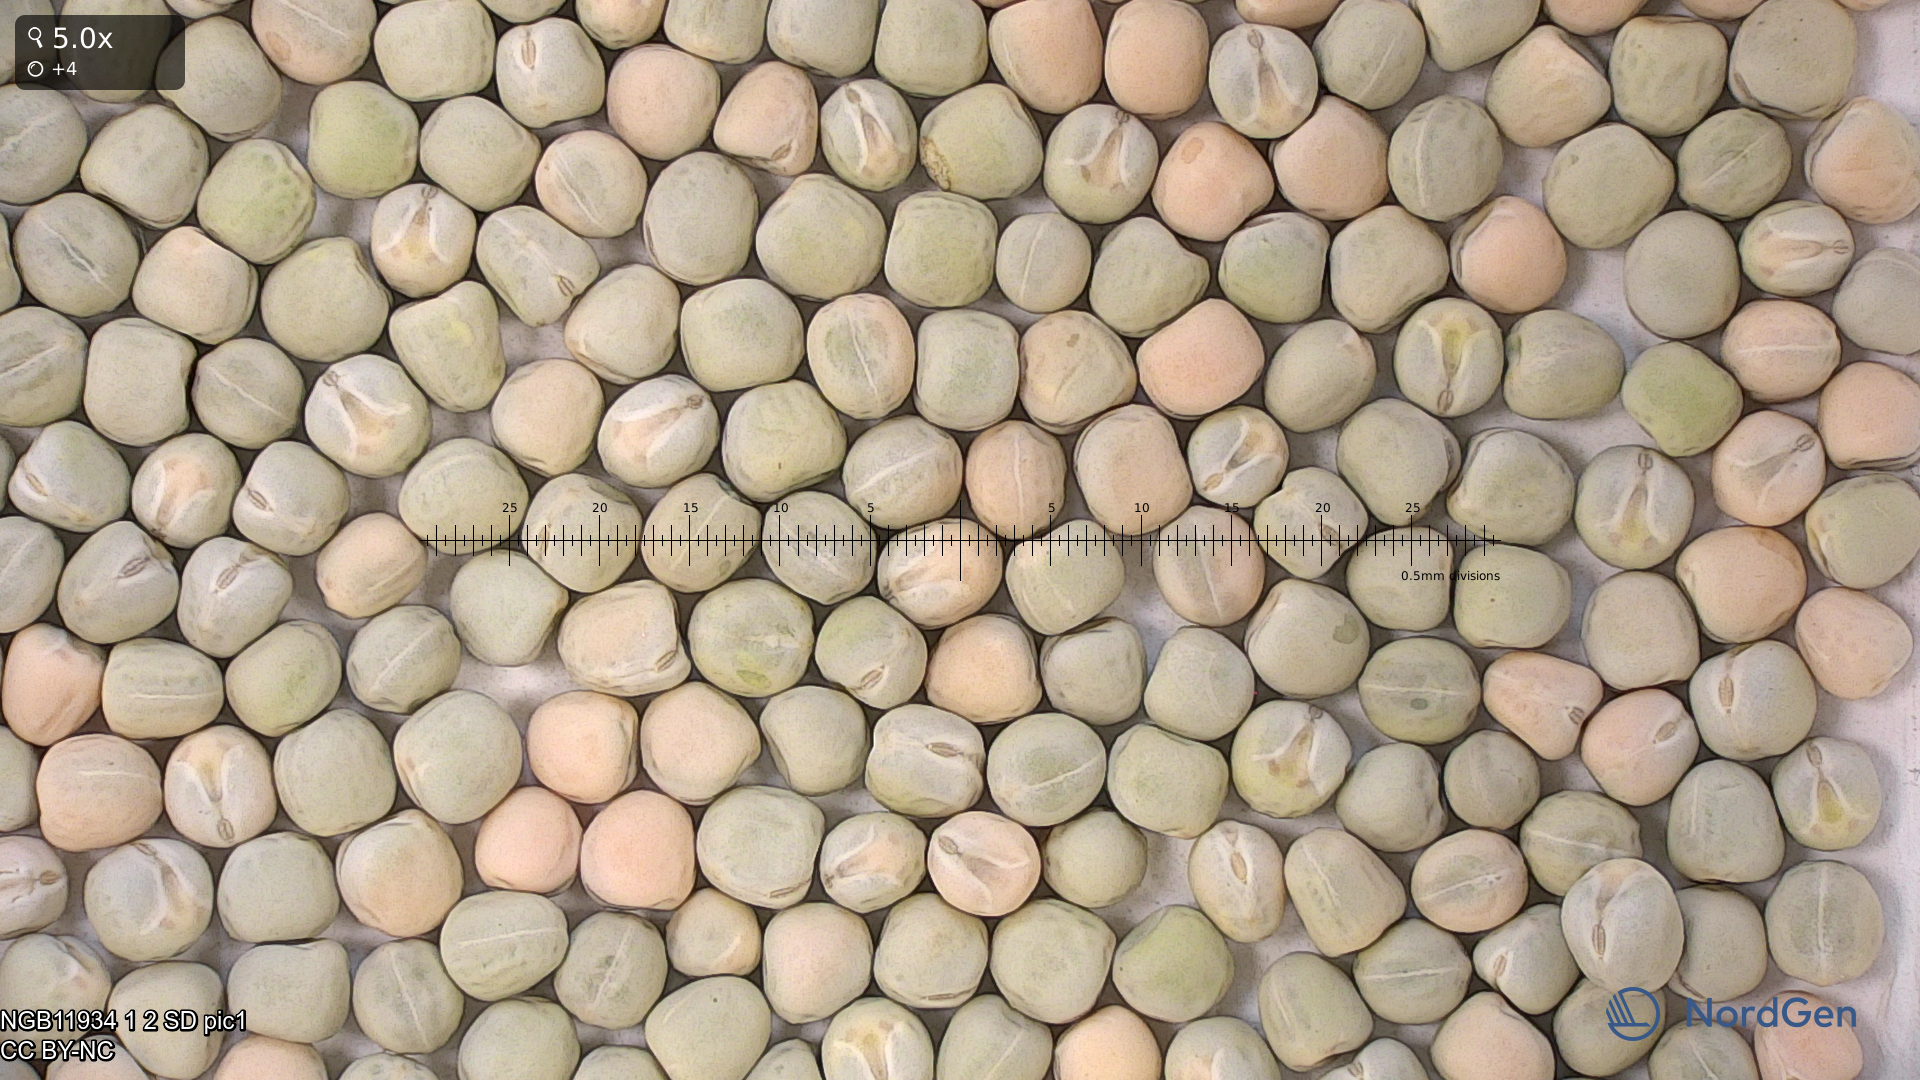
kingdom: Plantae
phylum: Tracheophyta
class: Magnoliopsida
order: Fabales
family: Fabaceae
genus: Lathyrus
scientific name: Lathyrus oleraceus
